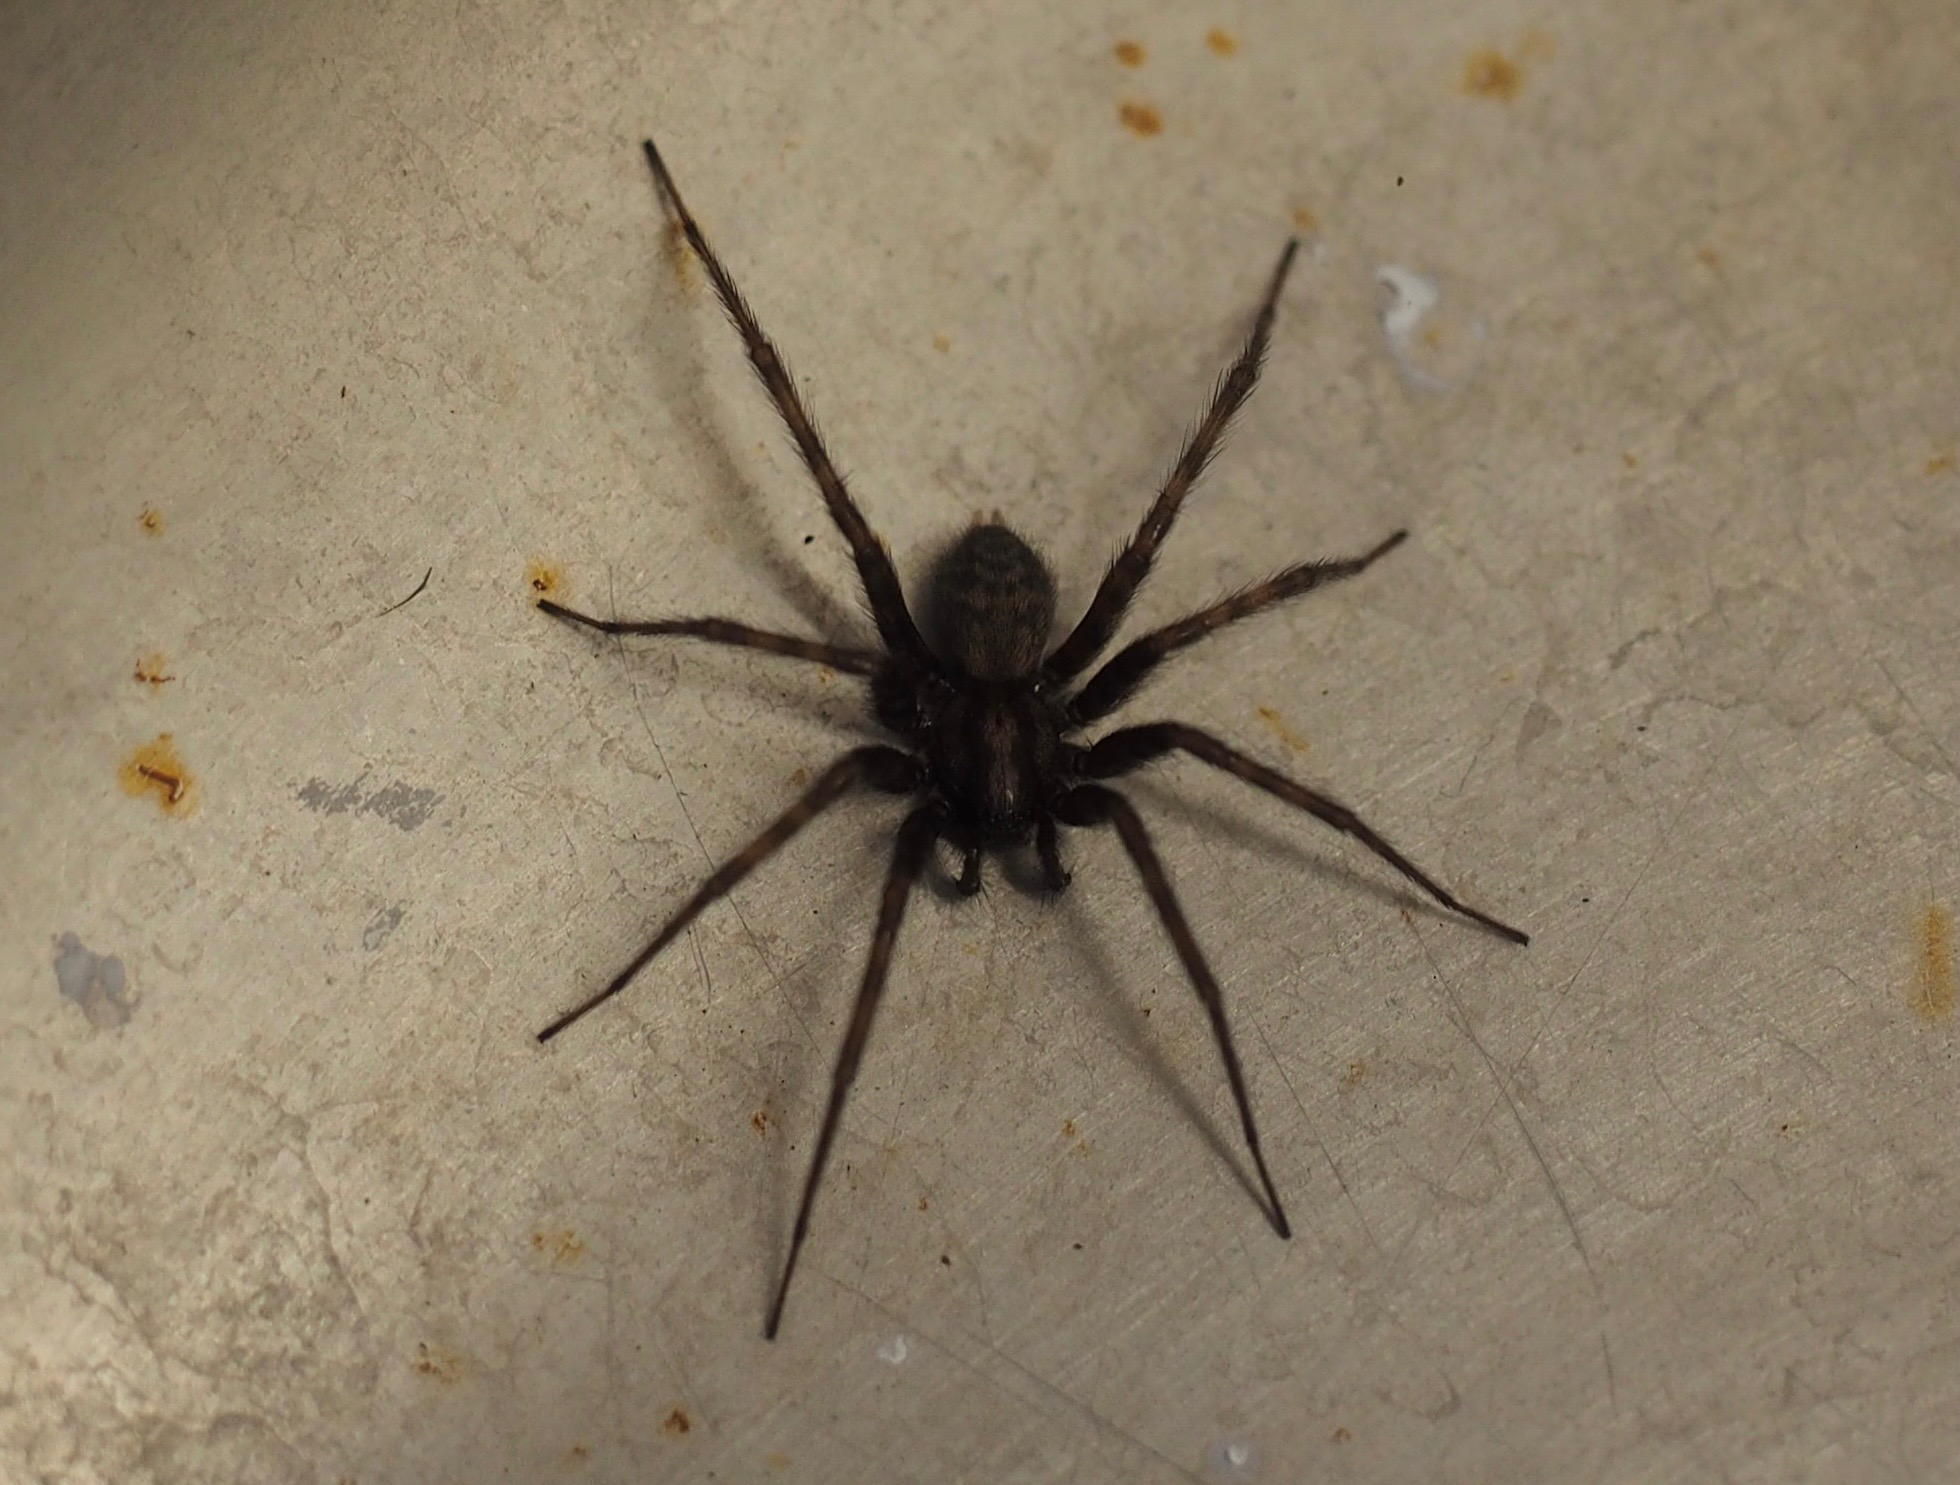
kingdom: Animalia
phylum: Arthropoda
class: Arachnida
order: Araneae
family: Agelenidae
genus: Tegenaria
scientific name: Tegenaria domestica
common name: Lille husedderkop
